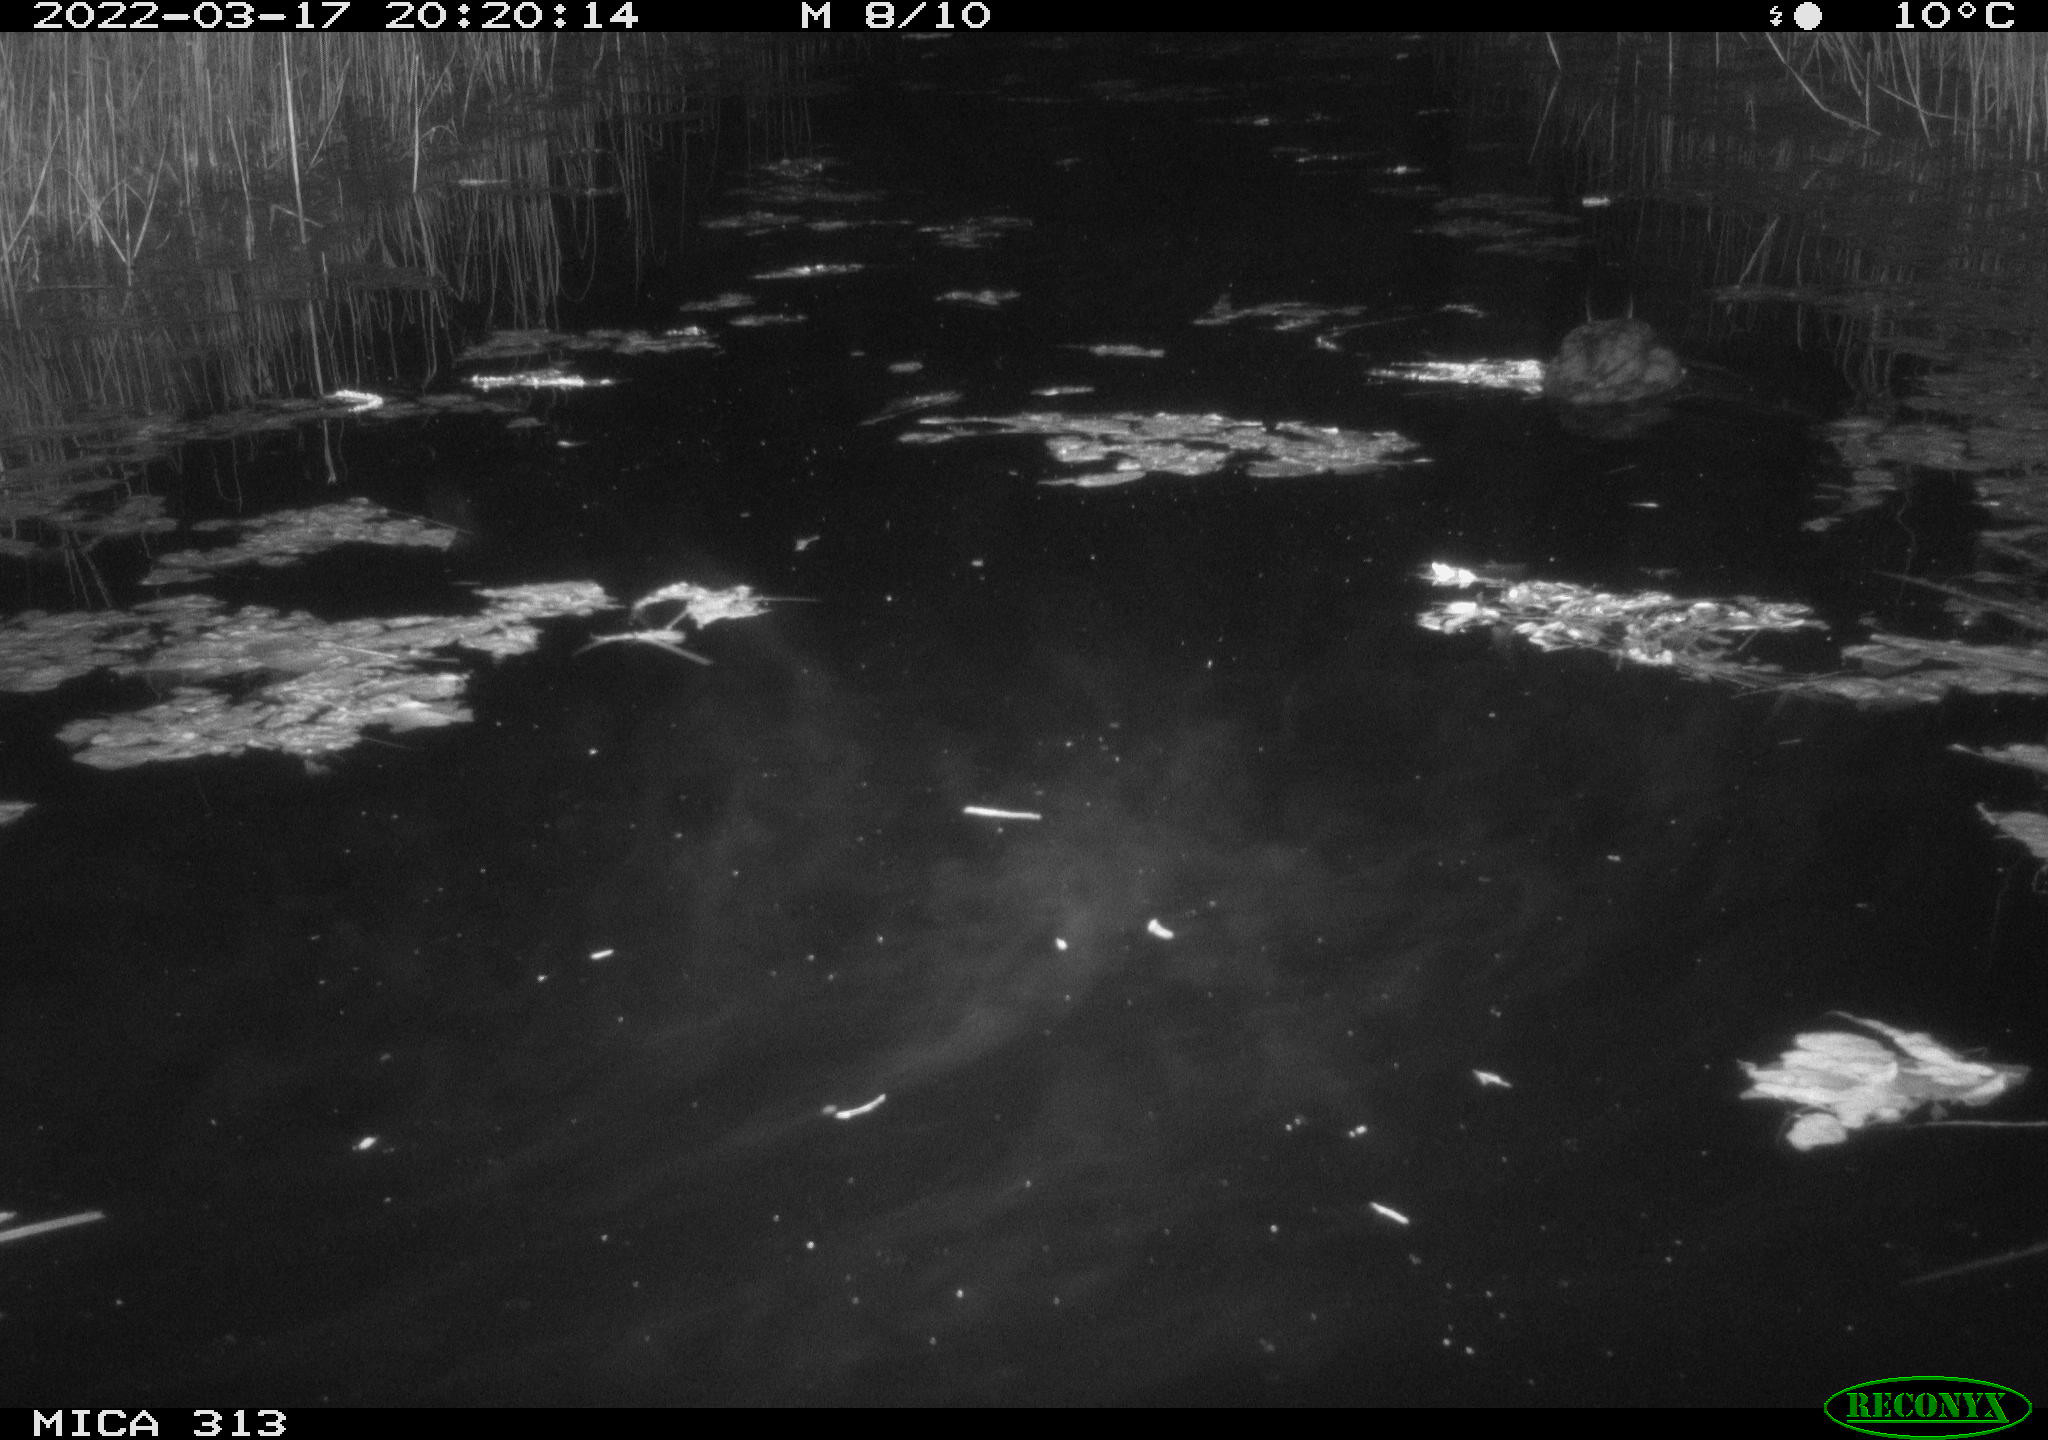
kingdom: Animalia
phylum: Chordata
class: Aves
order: Gruiformes
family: Rallidae
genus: Fulica
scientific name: Fulica atra
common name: Eurasian coot
